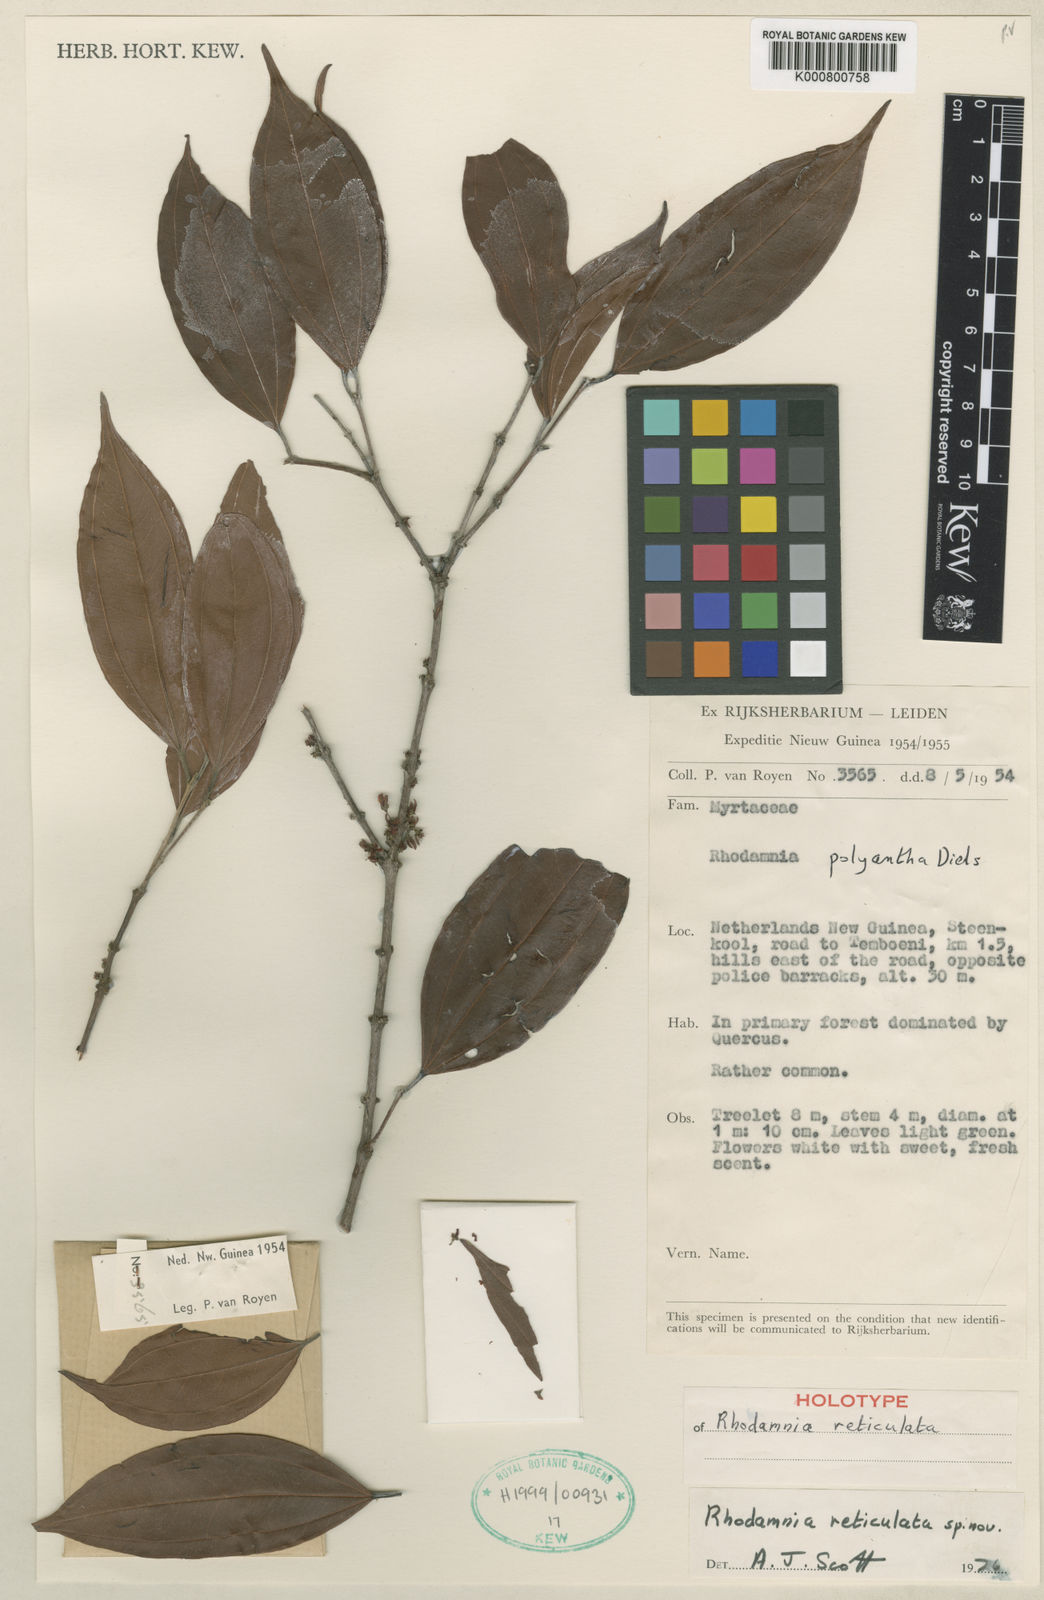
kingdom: Plantae
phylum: Tracheophyta
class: Magnoliopsida
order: Myrtales
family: Myrtaceae
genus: Rhodamnia
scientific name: Rhodamnia reticulata
